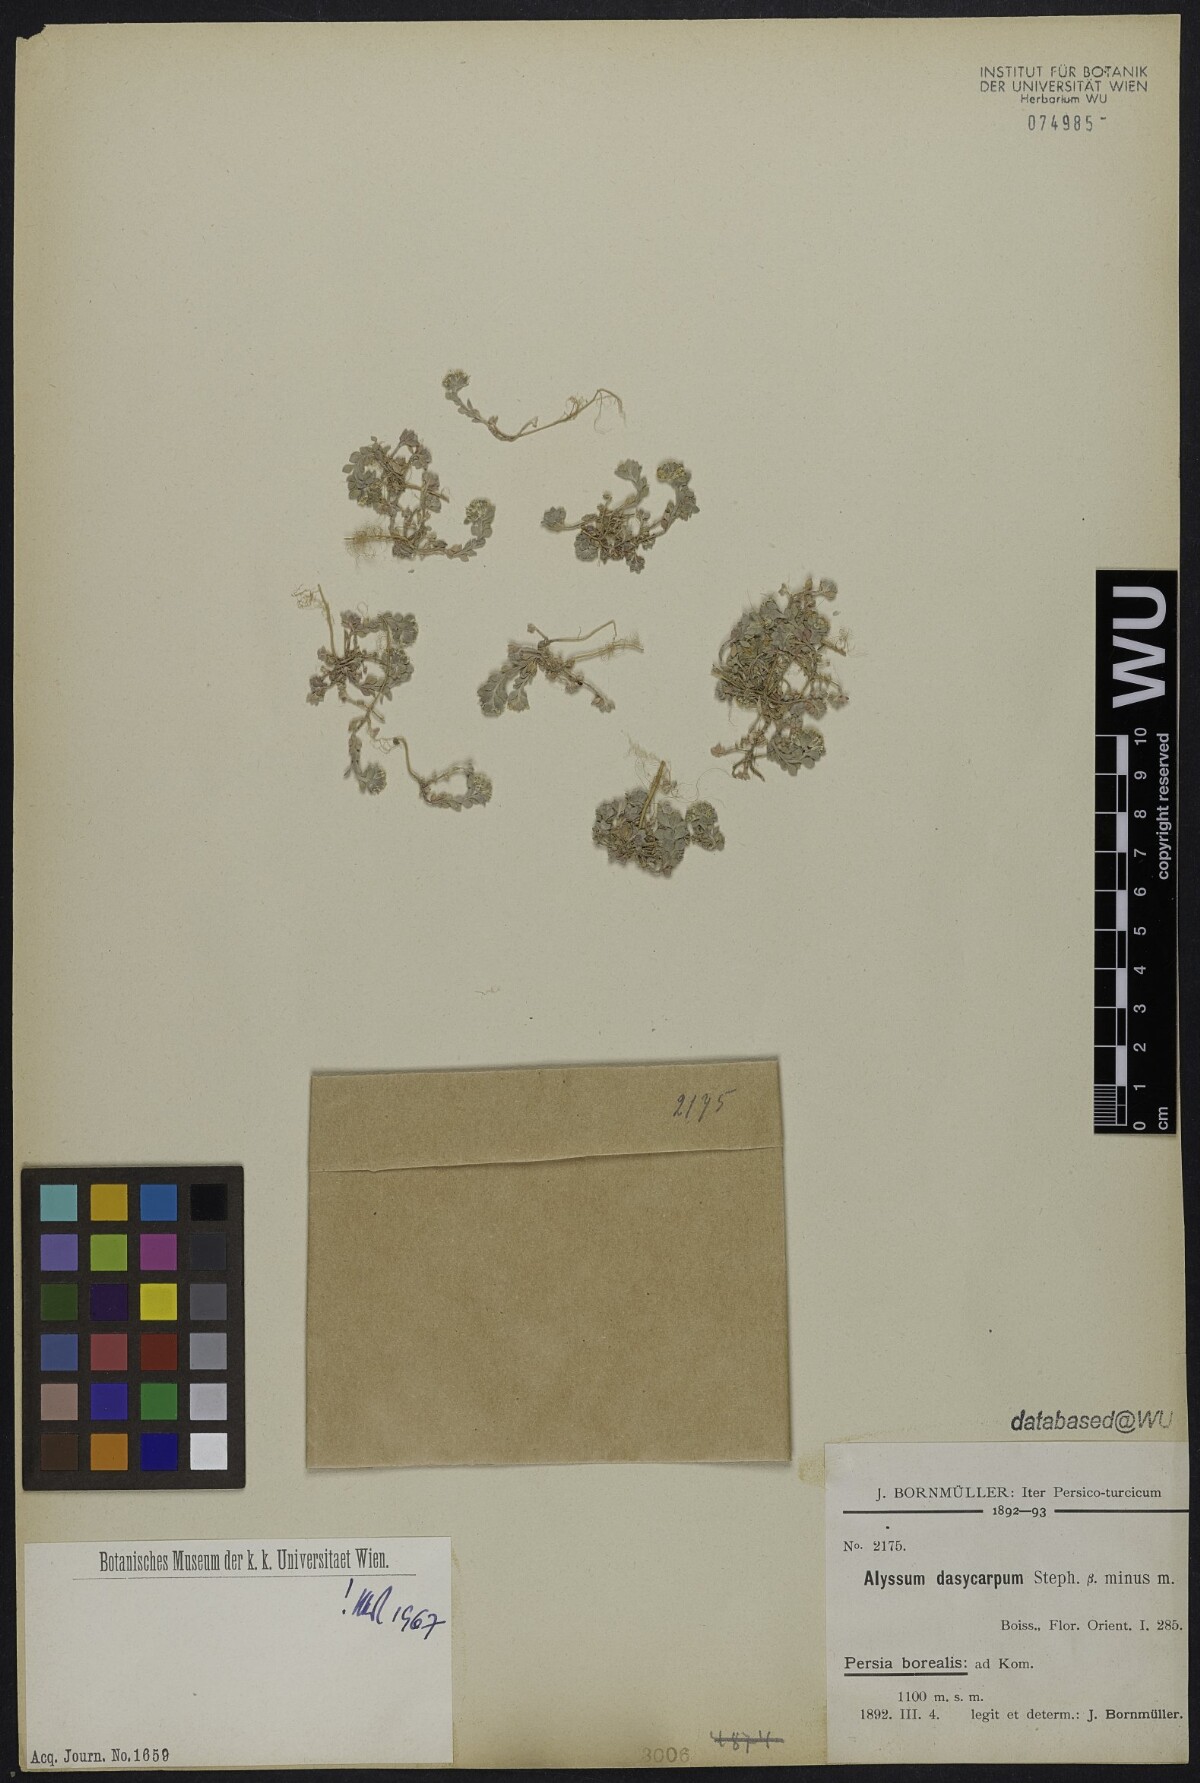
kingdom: Plantae
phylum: Tracheophyta
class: Magnoliopsida
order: Brassicales
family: Brassicaceae
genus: Alyssum
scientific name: Alyssum dasycarpum
